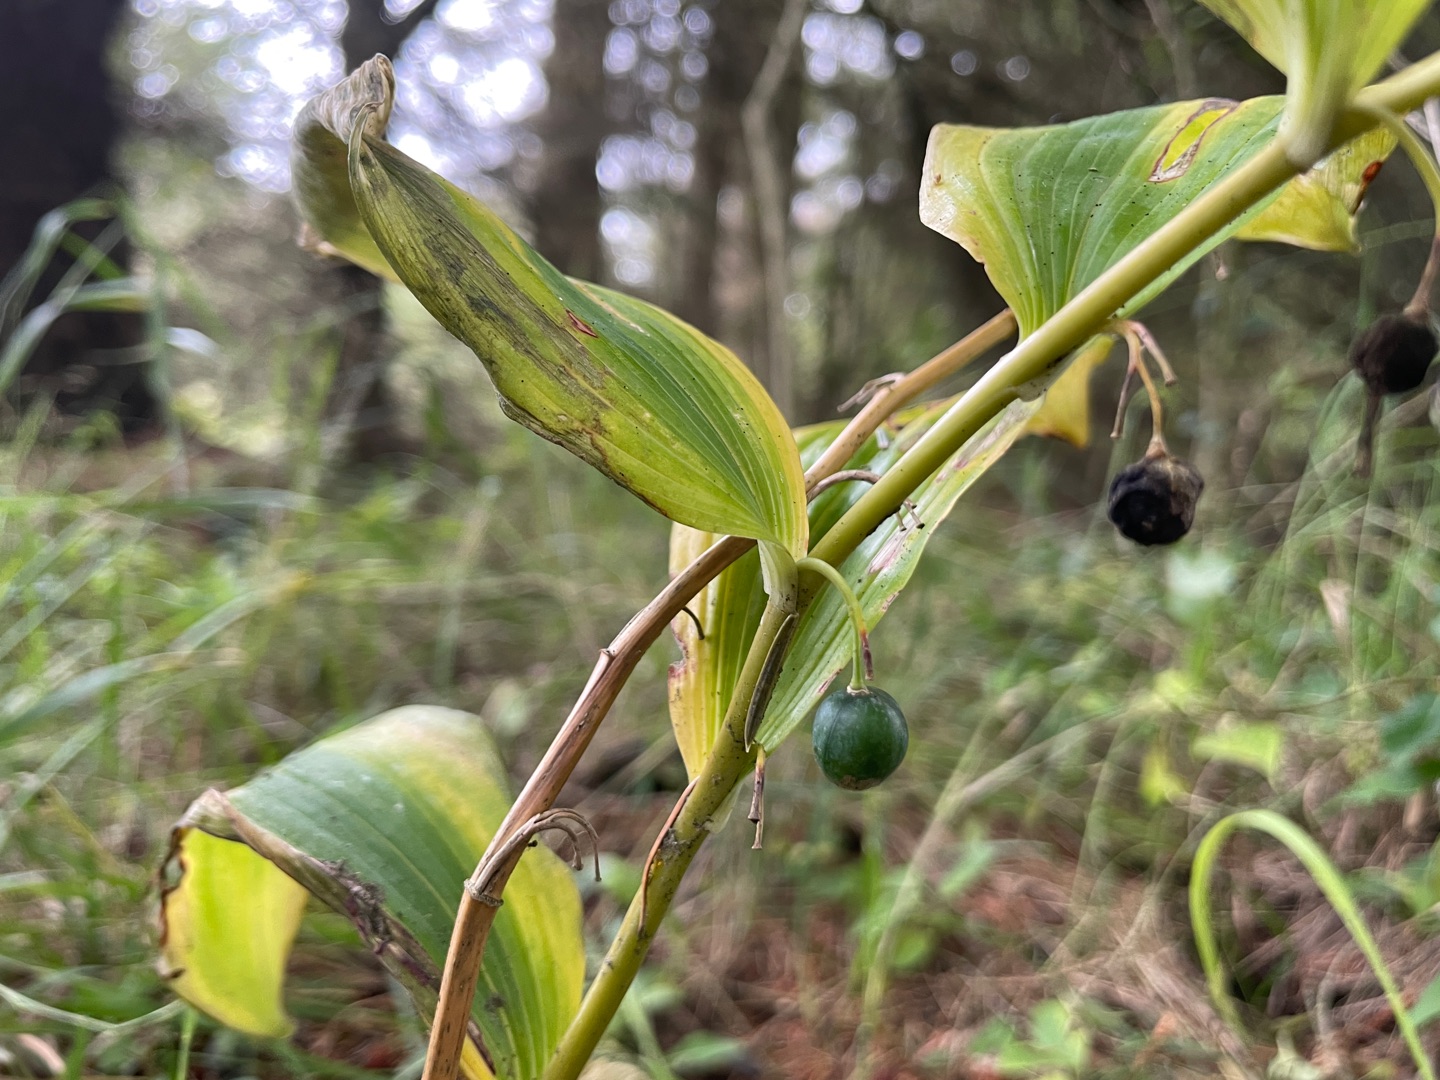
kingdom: Plantae
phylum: Tracheophyta
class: Liliopsida
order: Asparagales
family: Asparagaceae
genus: Polygonatum
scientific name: Polygonatum multiflorum
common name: Stor konval
